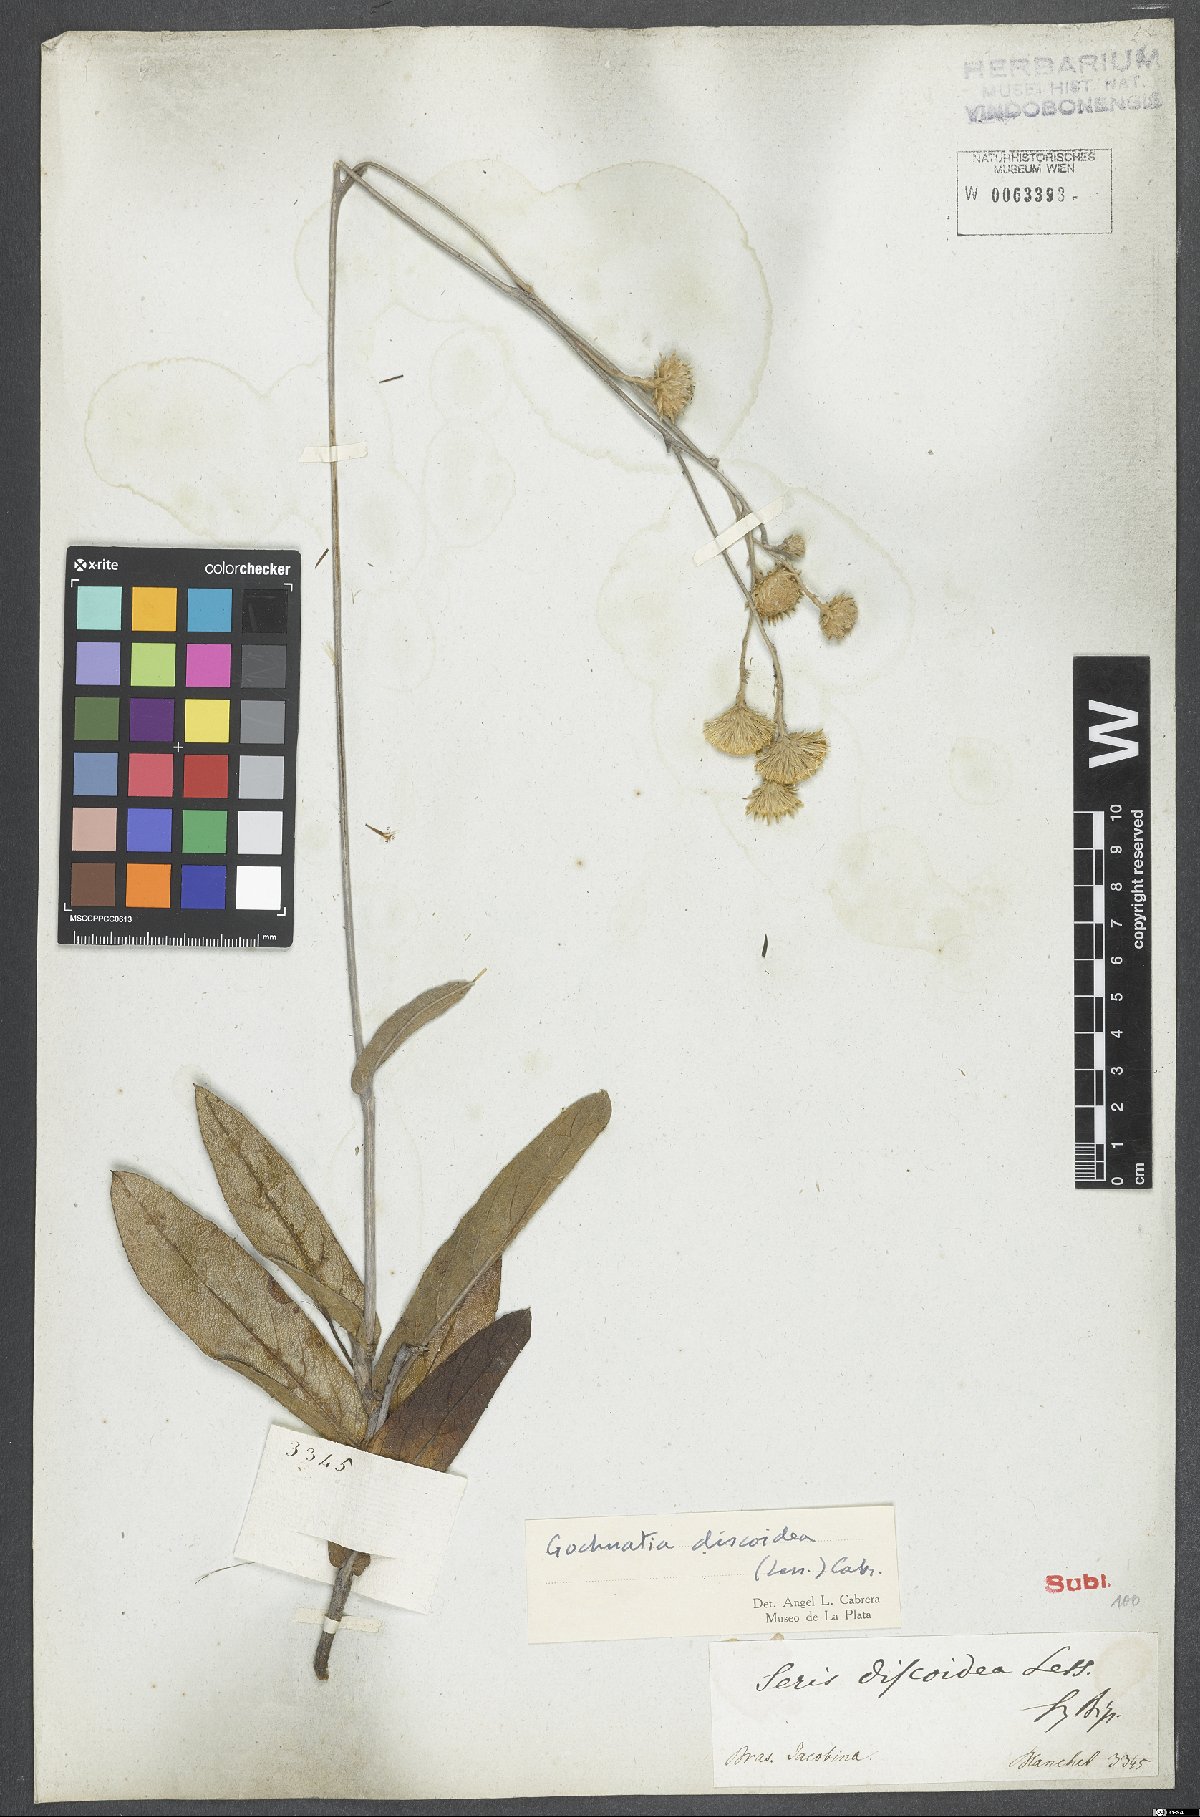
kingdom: Plantae
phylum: Tracheophyta
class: Magnoliopsida
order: Asterales
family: Asteraceae
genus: Richterago
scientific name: Richterago discoidea
